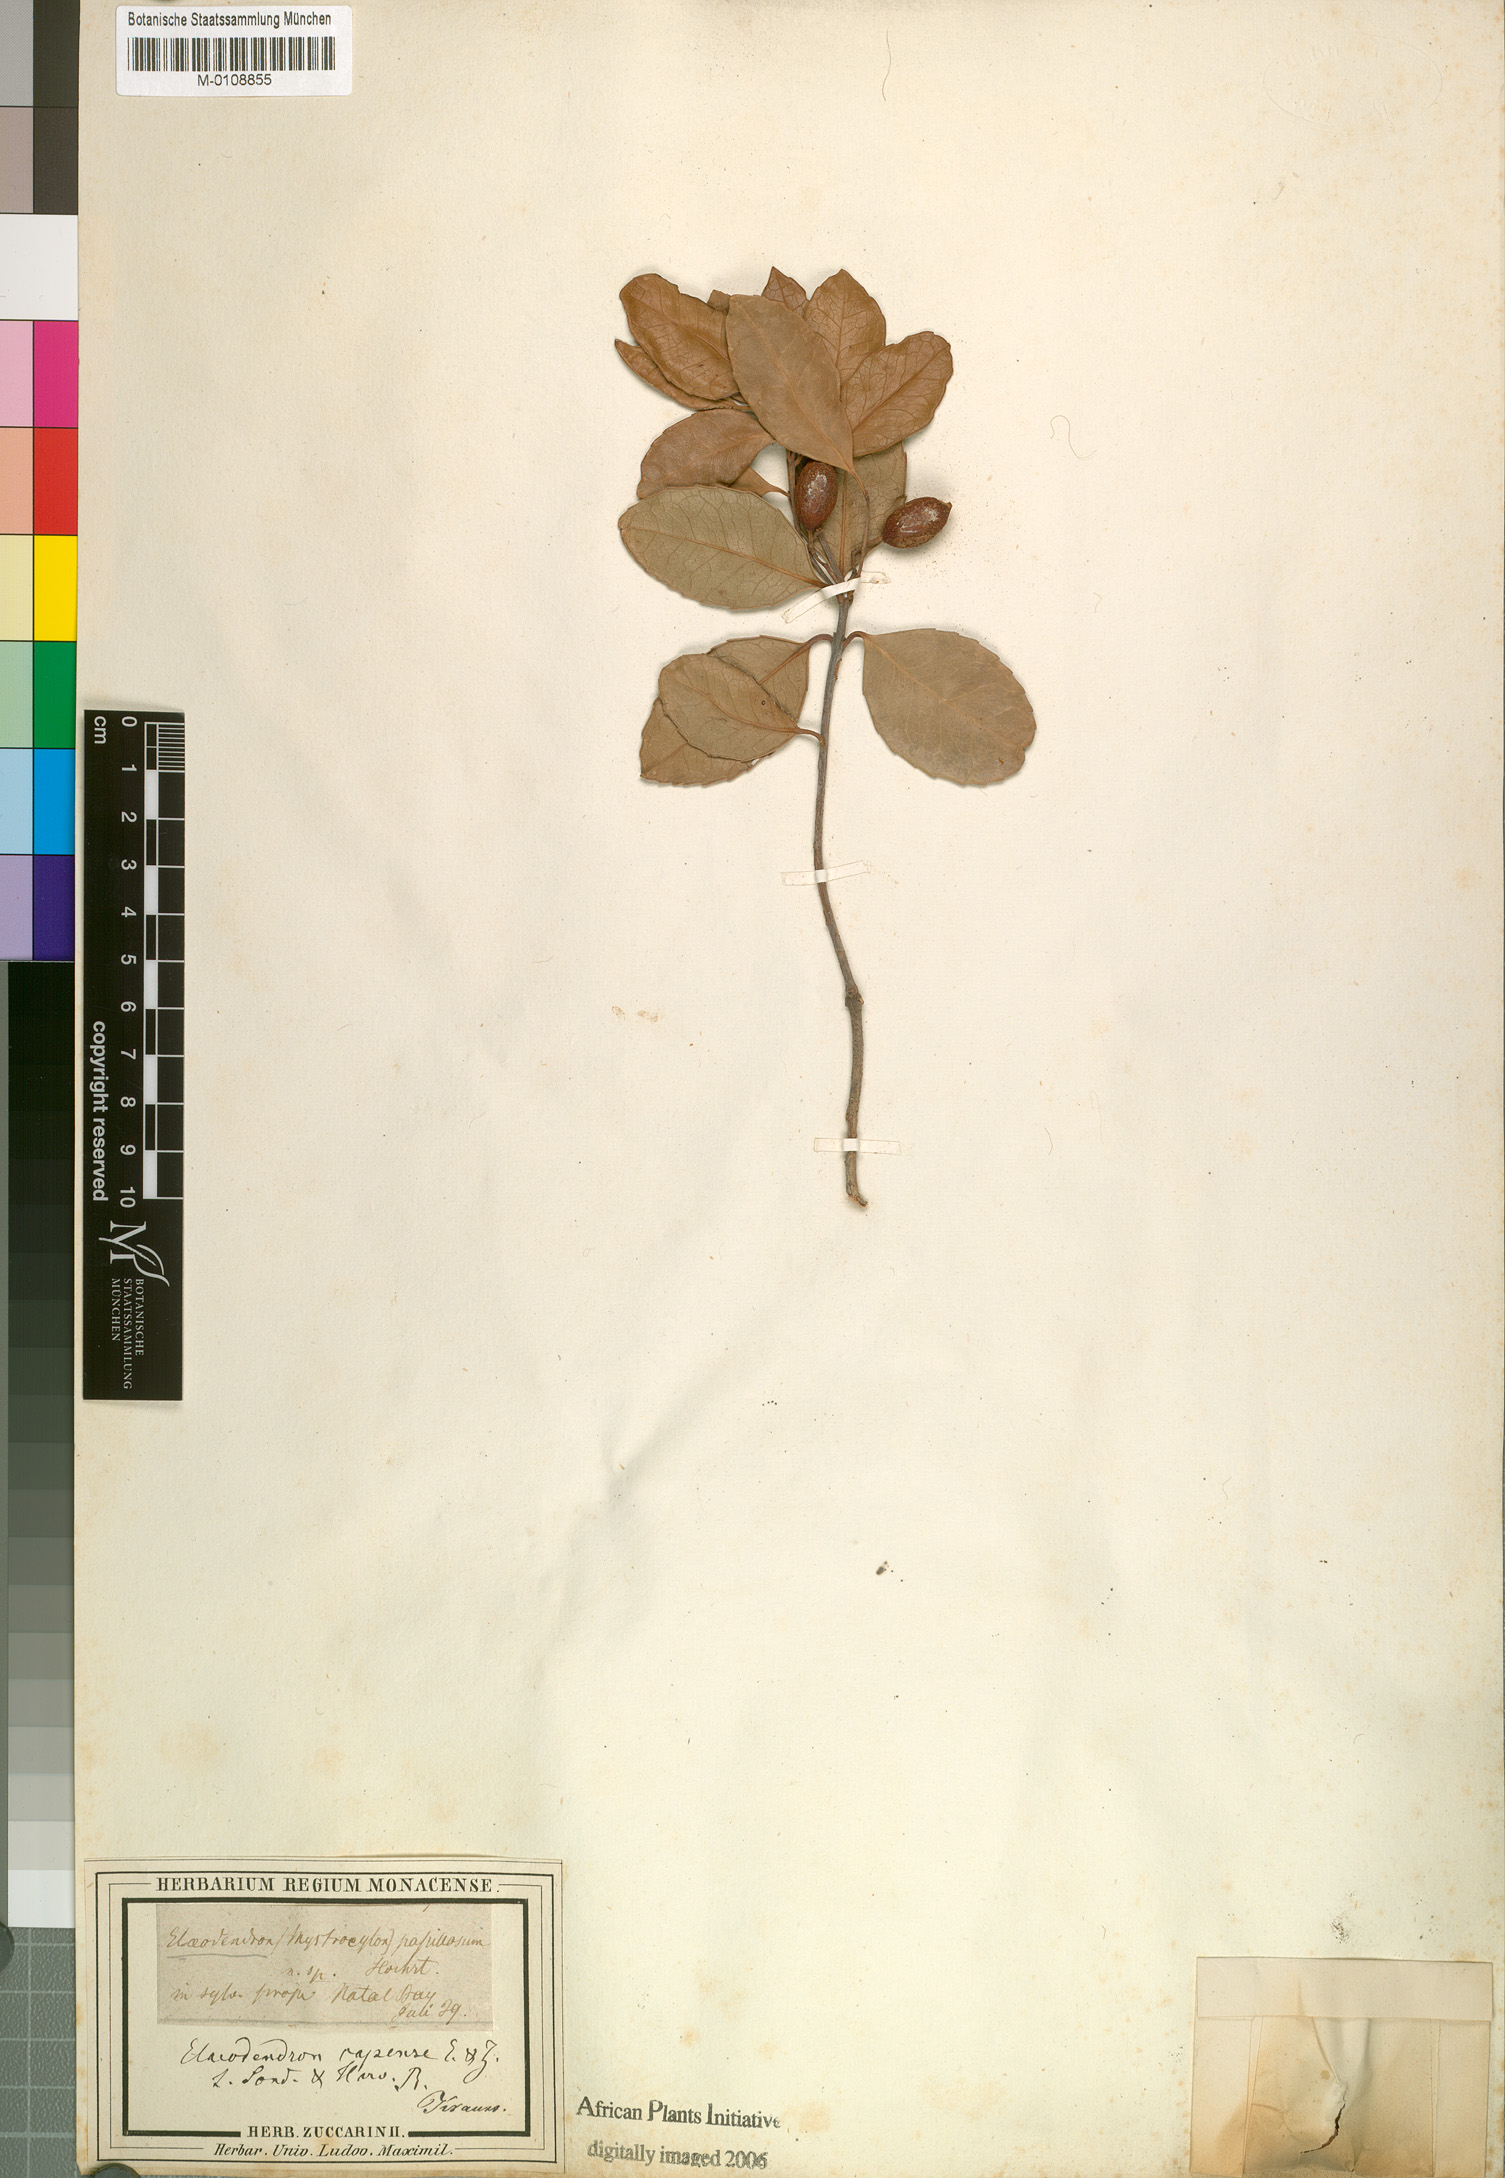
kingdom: Plantae
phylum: Tracheophyta
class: Magnoliopsida
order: Celastrales
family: Celastraceae
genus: Elaeodendron
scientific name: Elaeodendron croceum
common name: Saffron
